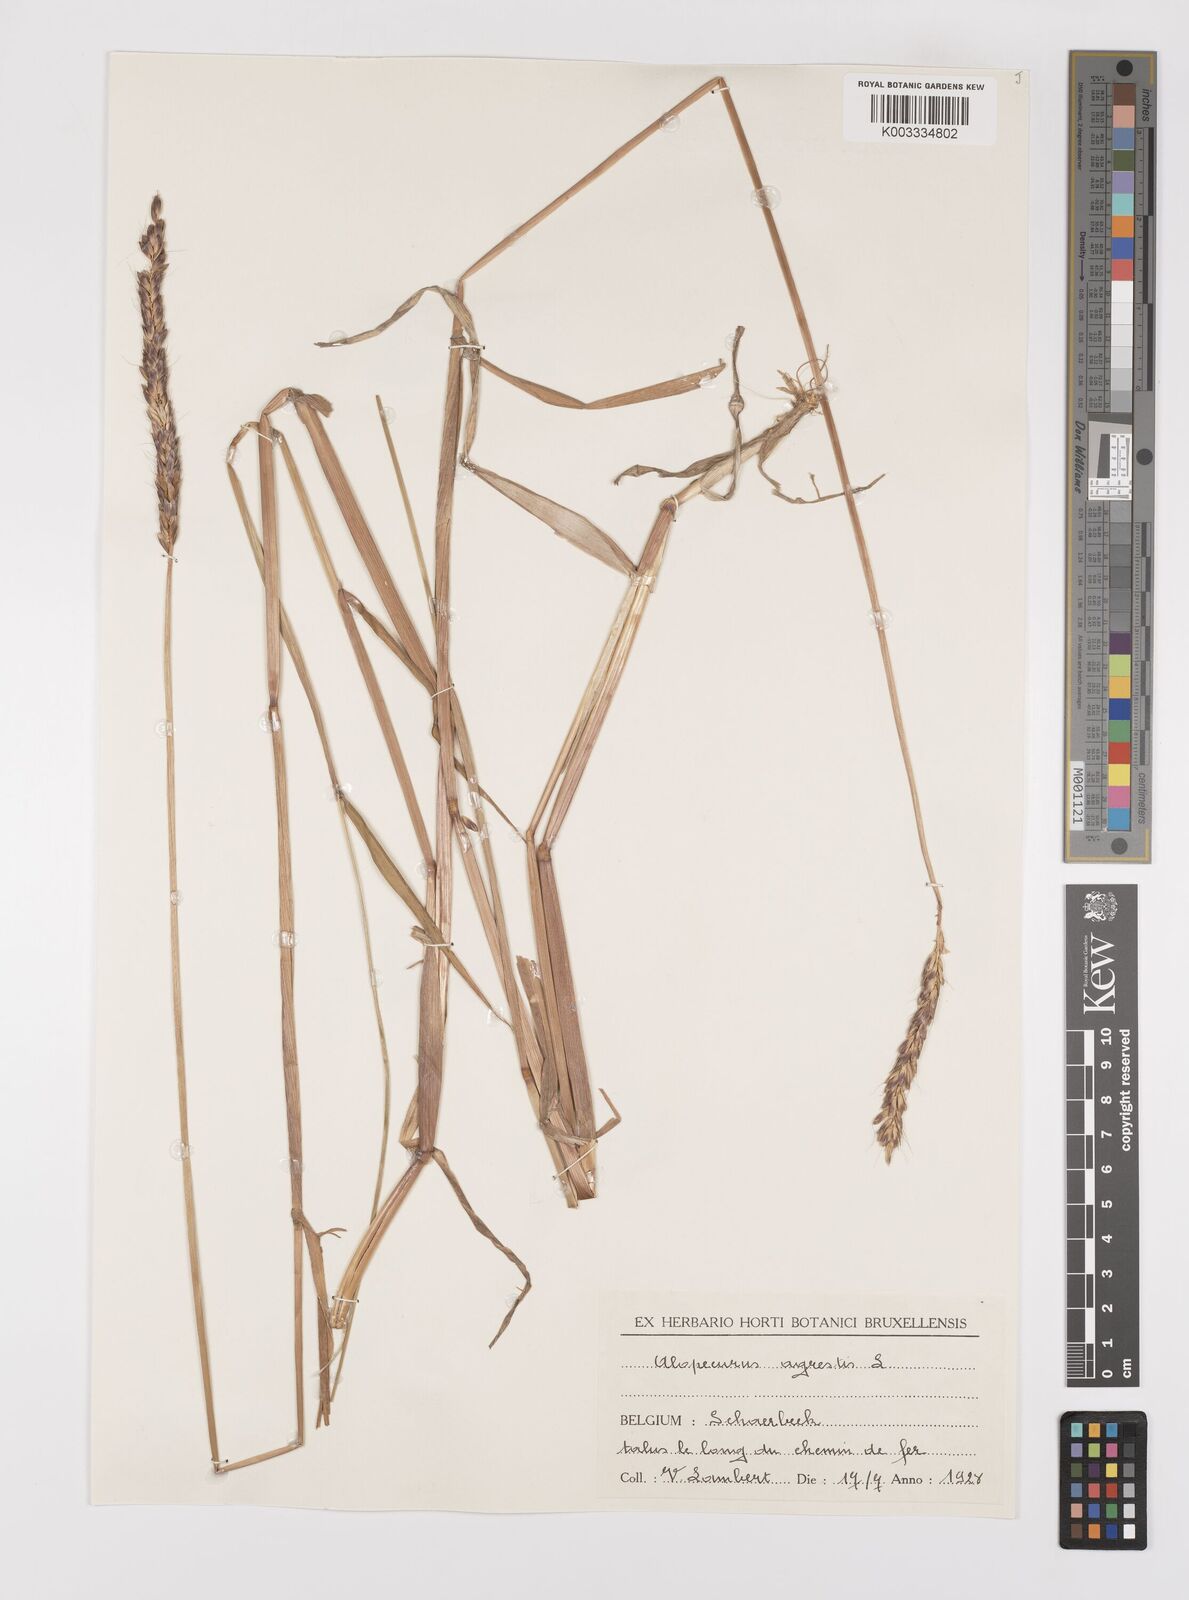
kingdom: Plantae
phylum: Tracheophyta
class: Liliopsida
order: Poales
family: Poaceae
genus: Alopecurus
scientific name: Alopecurus myosuroides
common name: Black-grass
